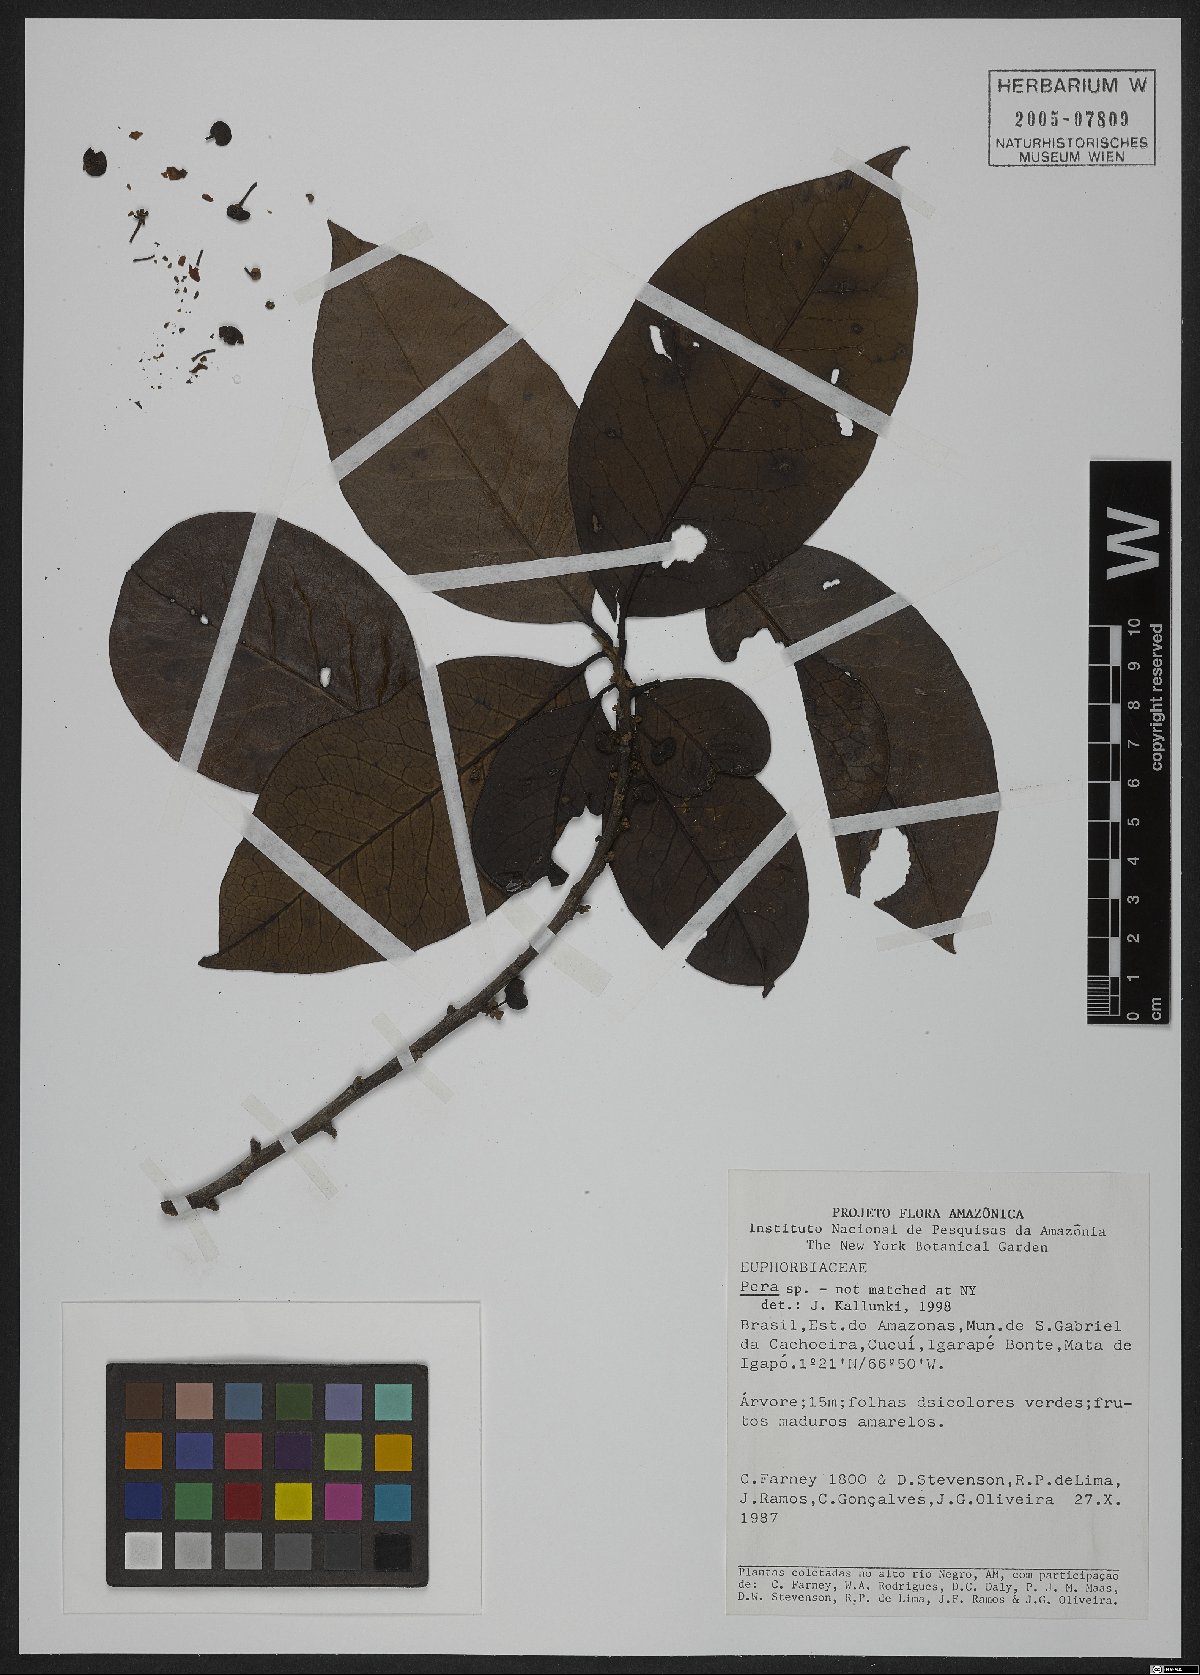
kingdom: Plantae
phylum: Tracheophyta
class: Magnoliopsida
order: Malpighiales
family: Peraceae
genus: Pera
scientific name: Pera
